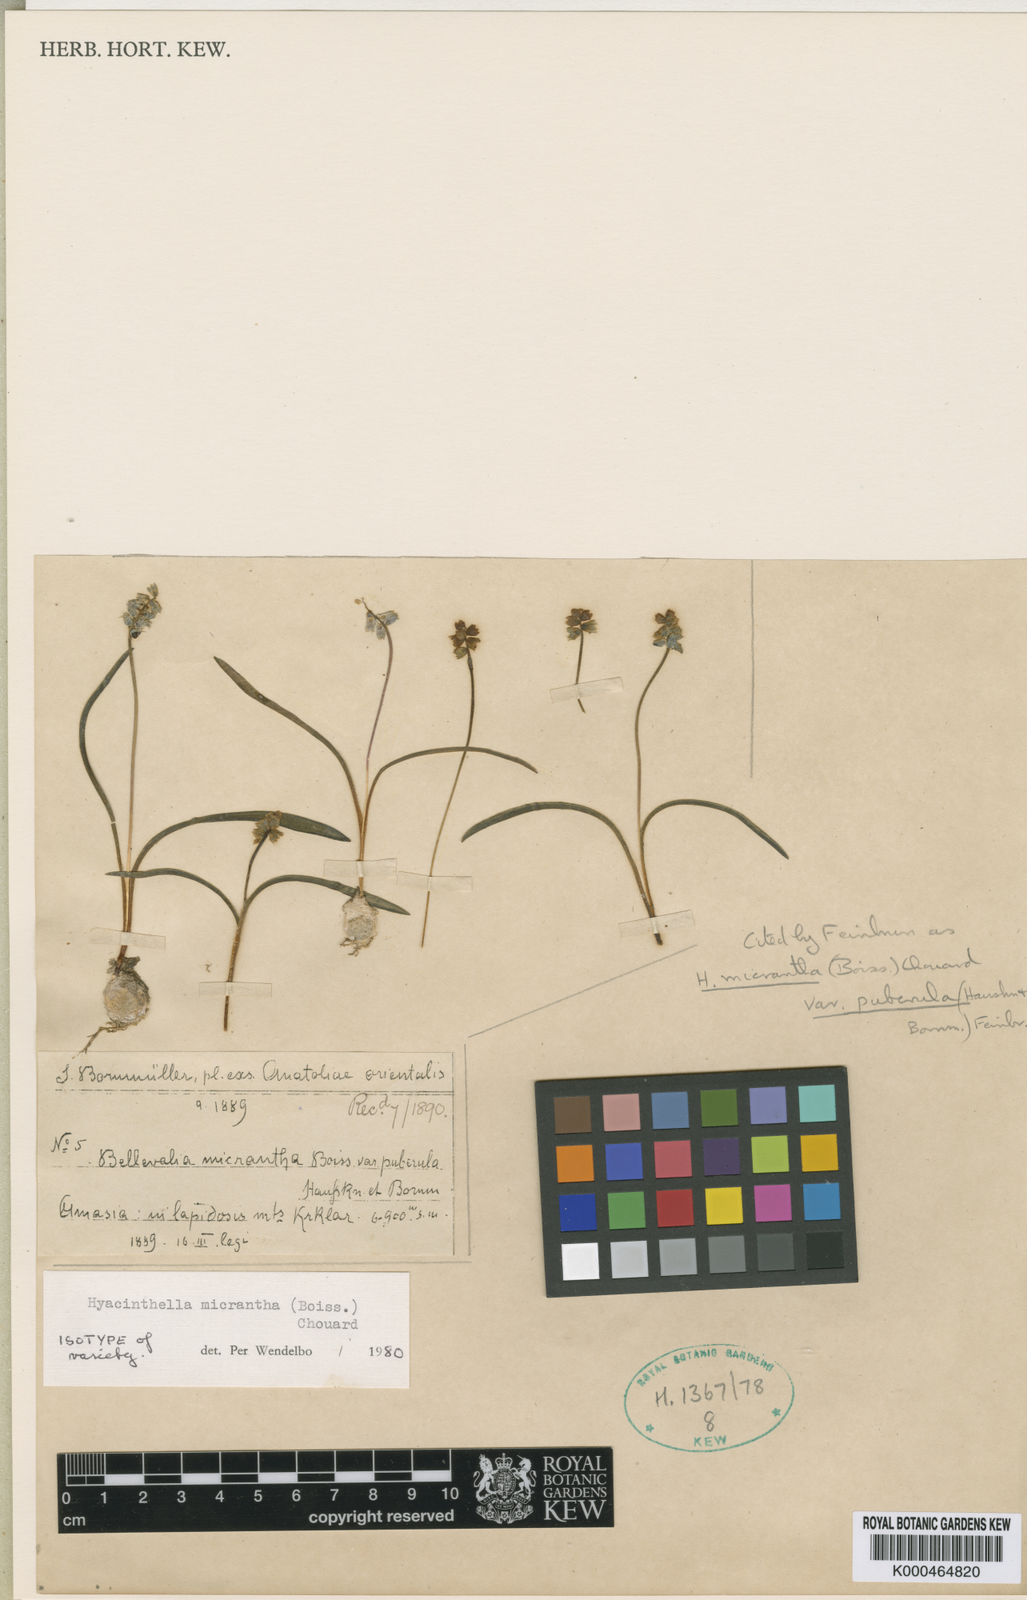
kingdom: Plantae
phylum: Tracheophyta
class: Liliopsida
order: Asparagales
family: Asparagaceae
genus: Hyacinthella
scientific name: Hyacinthella micrantha
